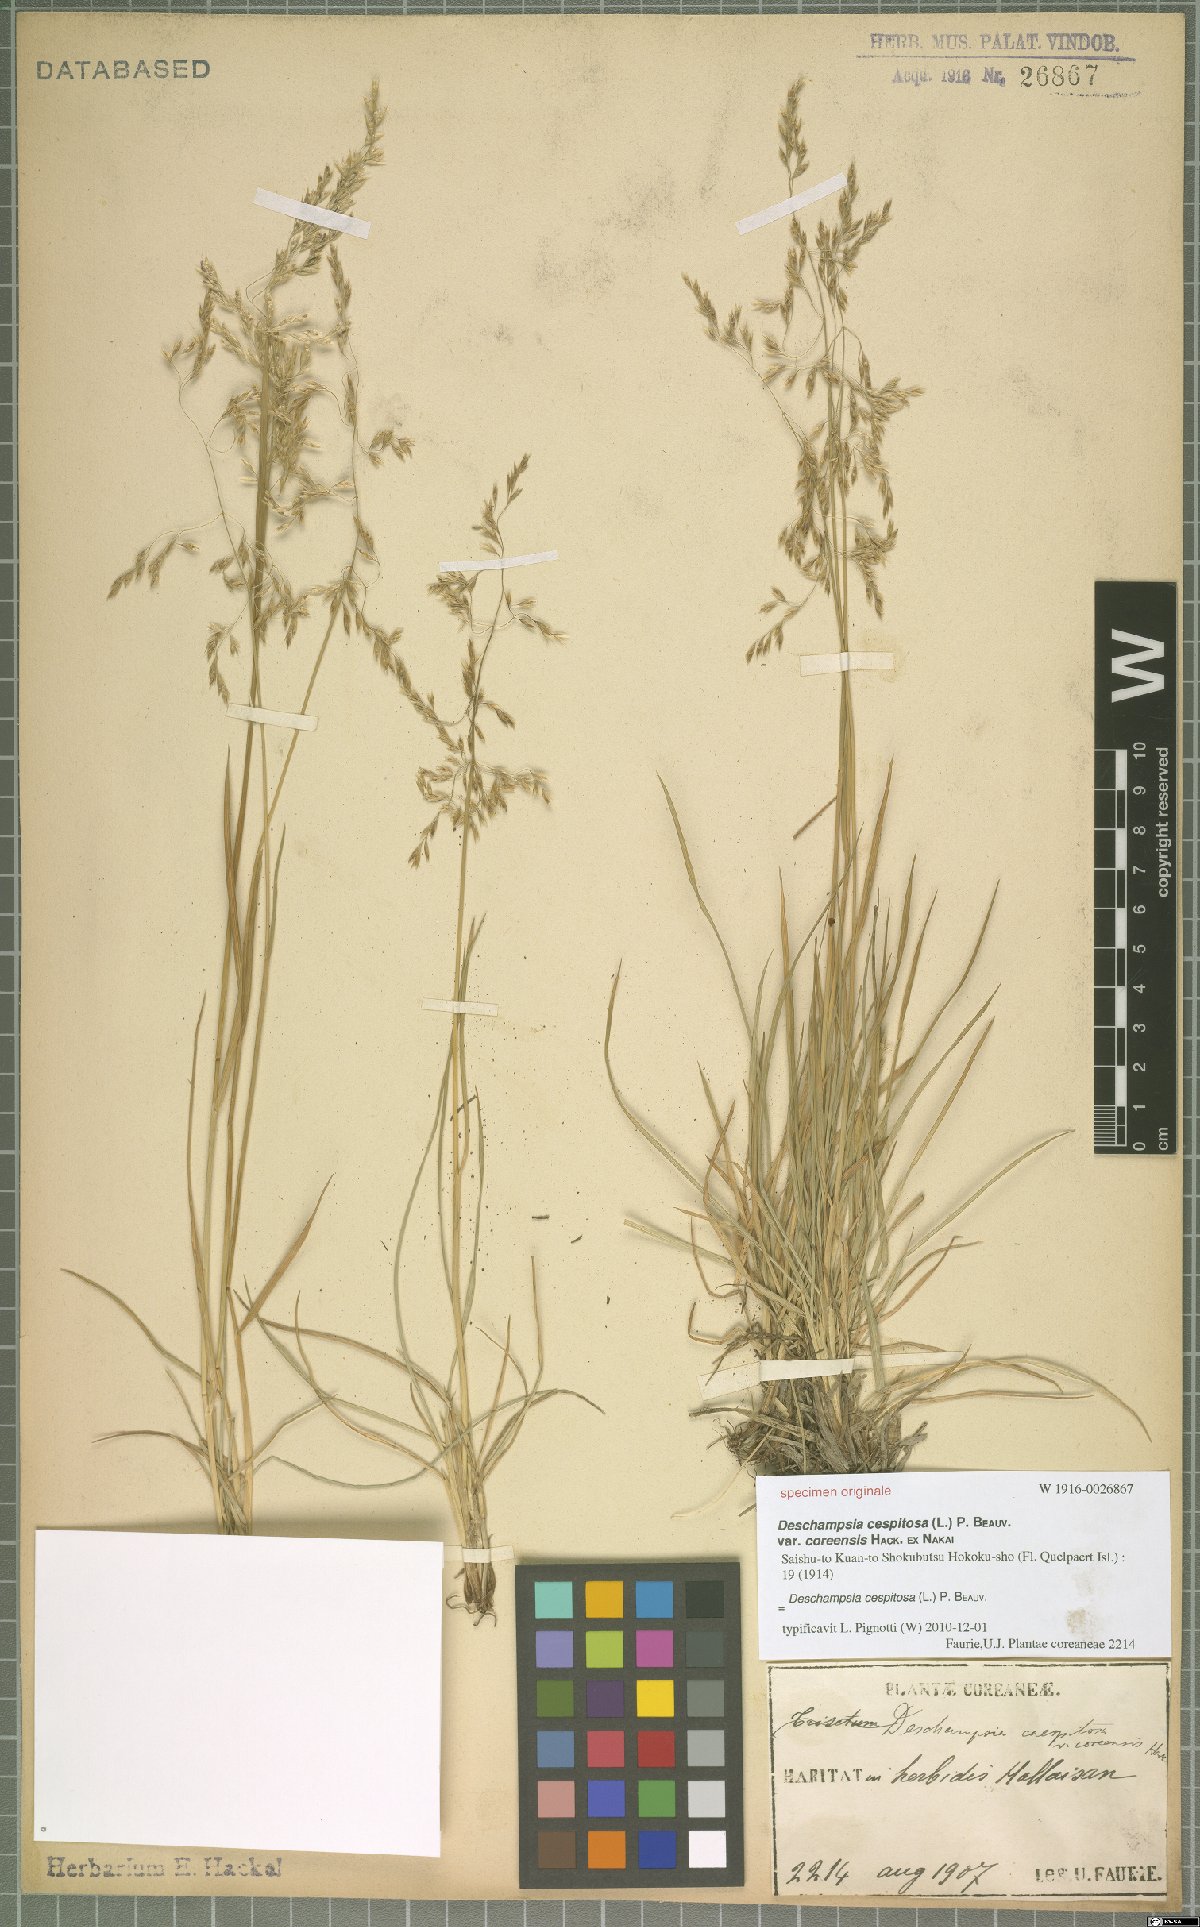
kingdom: Plantae
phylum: Tracheophyta
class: Liliopsida
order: Poales
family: Poaceae
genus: Deschampsia
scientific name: Deschampsia cespitosa
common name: Tufted hair-grass
